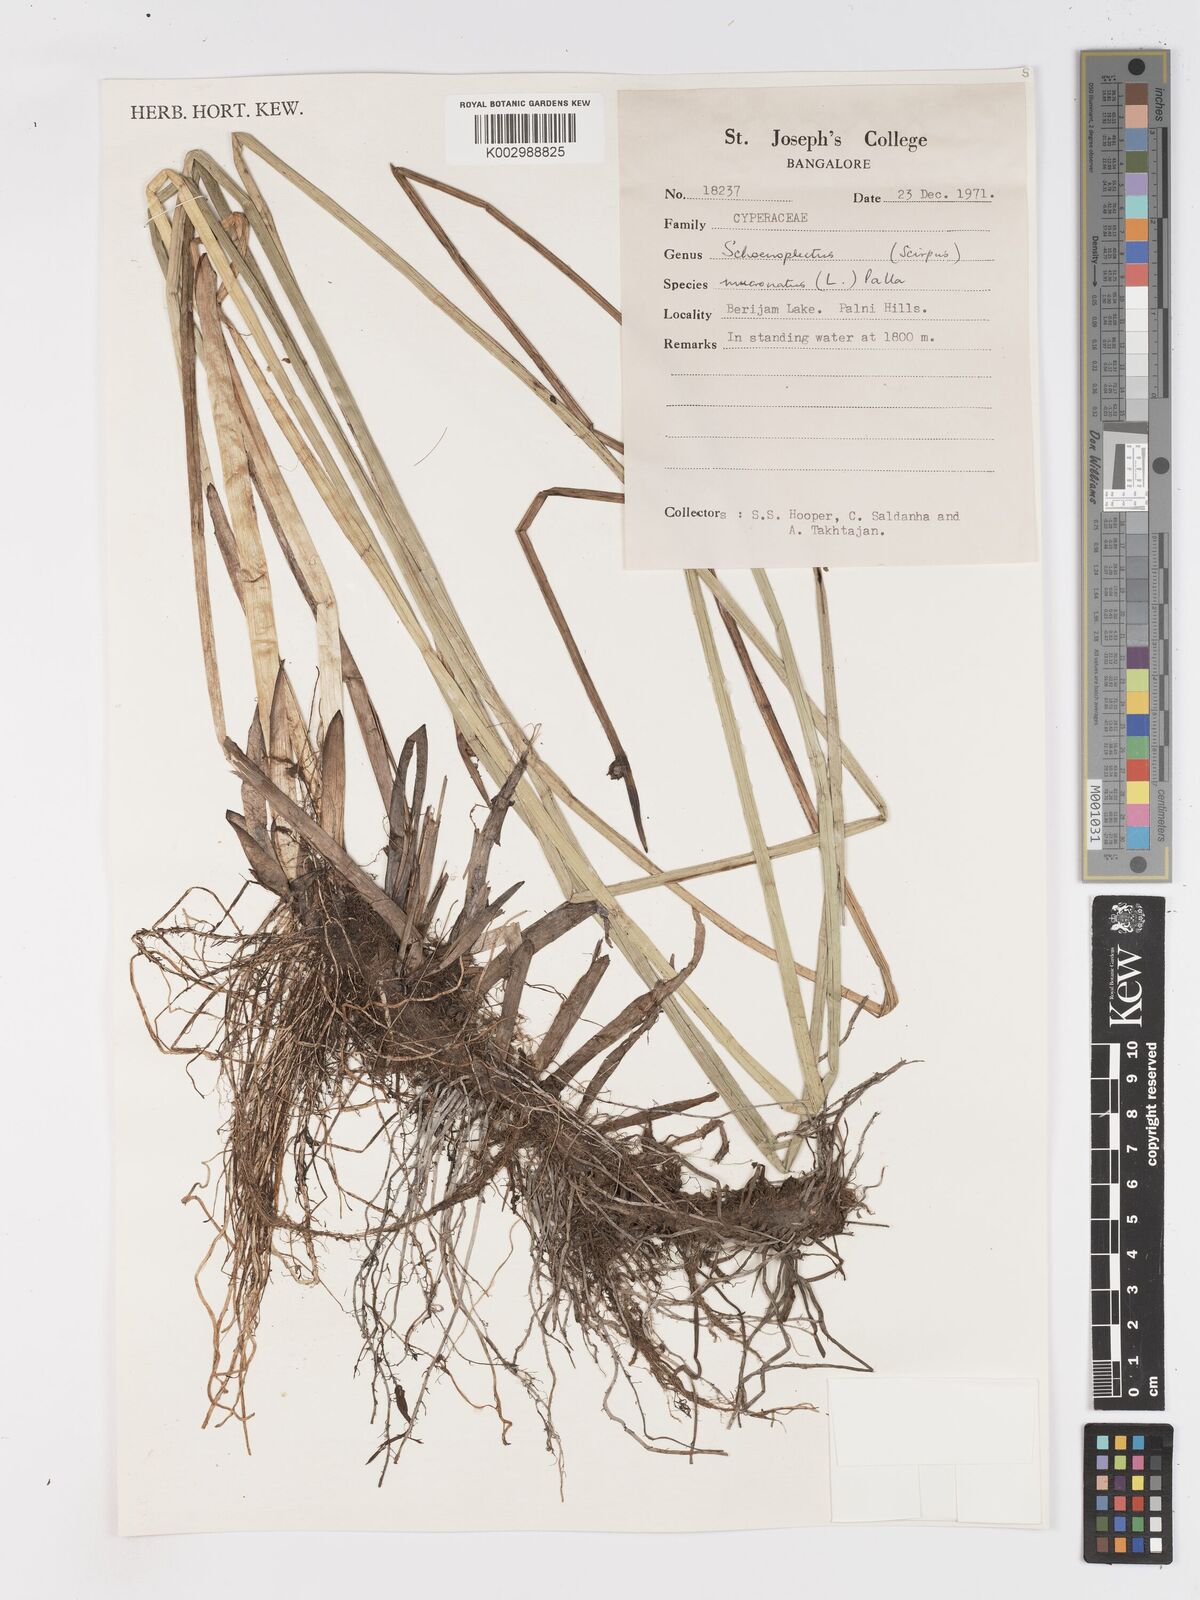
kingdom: Plantae
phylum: Tracheophyta
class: Liliopsida
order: Poales
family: Cyperaceae
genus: Schoenoplectiella
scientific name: Schoenoplectiella mucronata
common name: Bog bulrush
